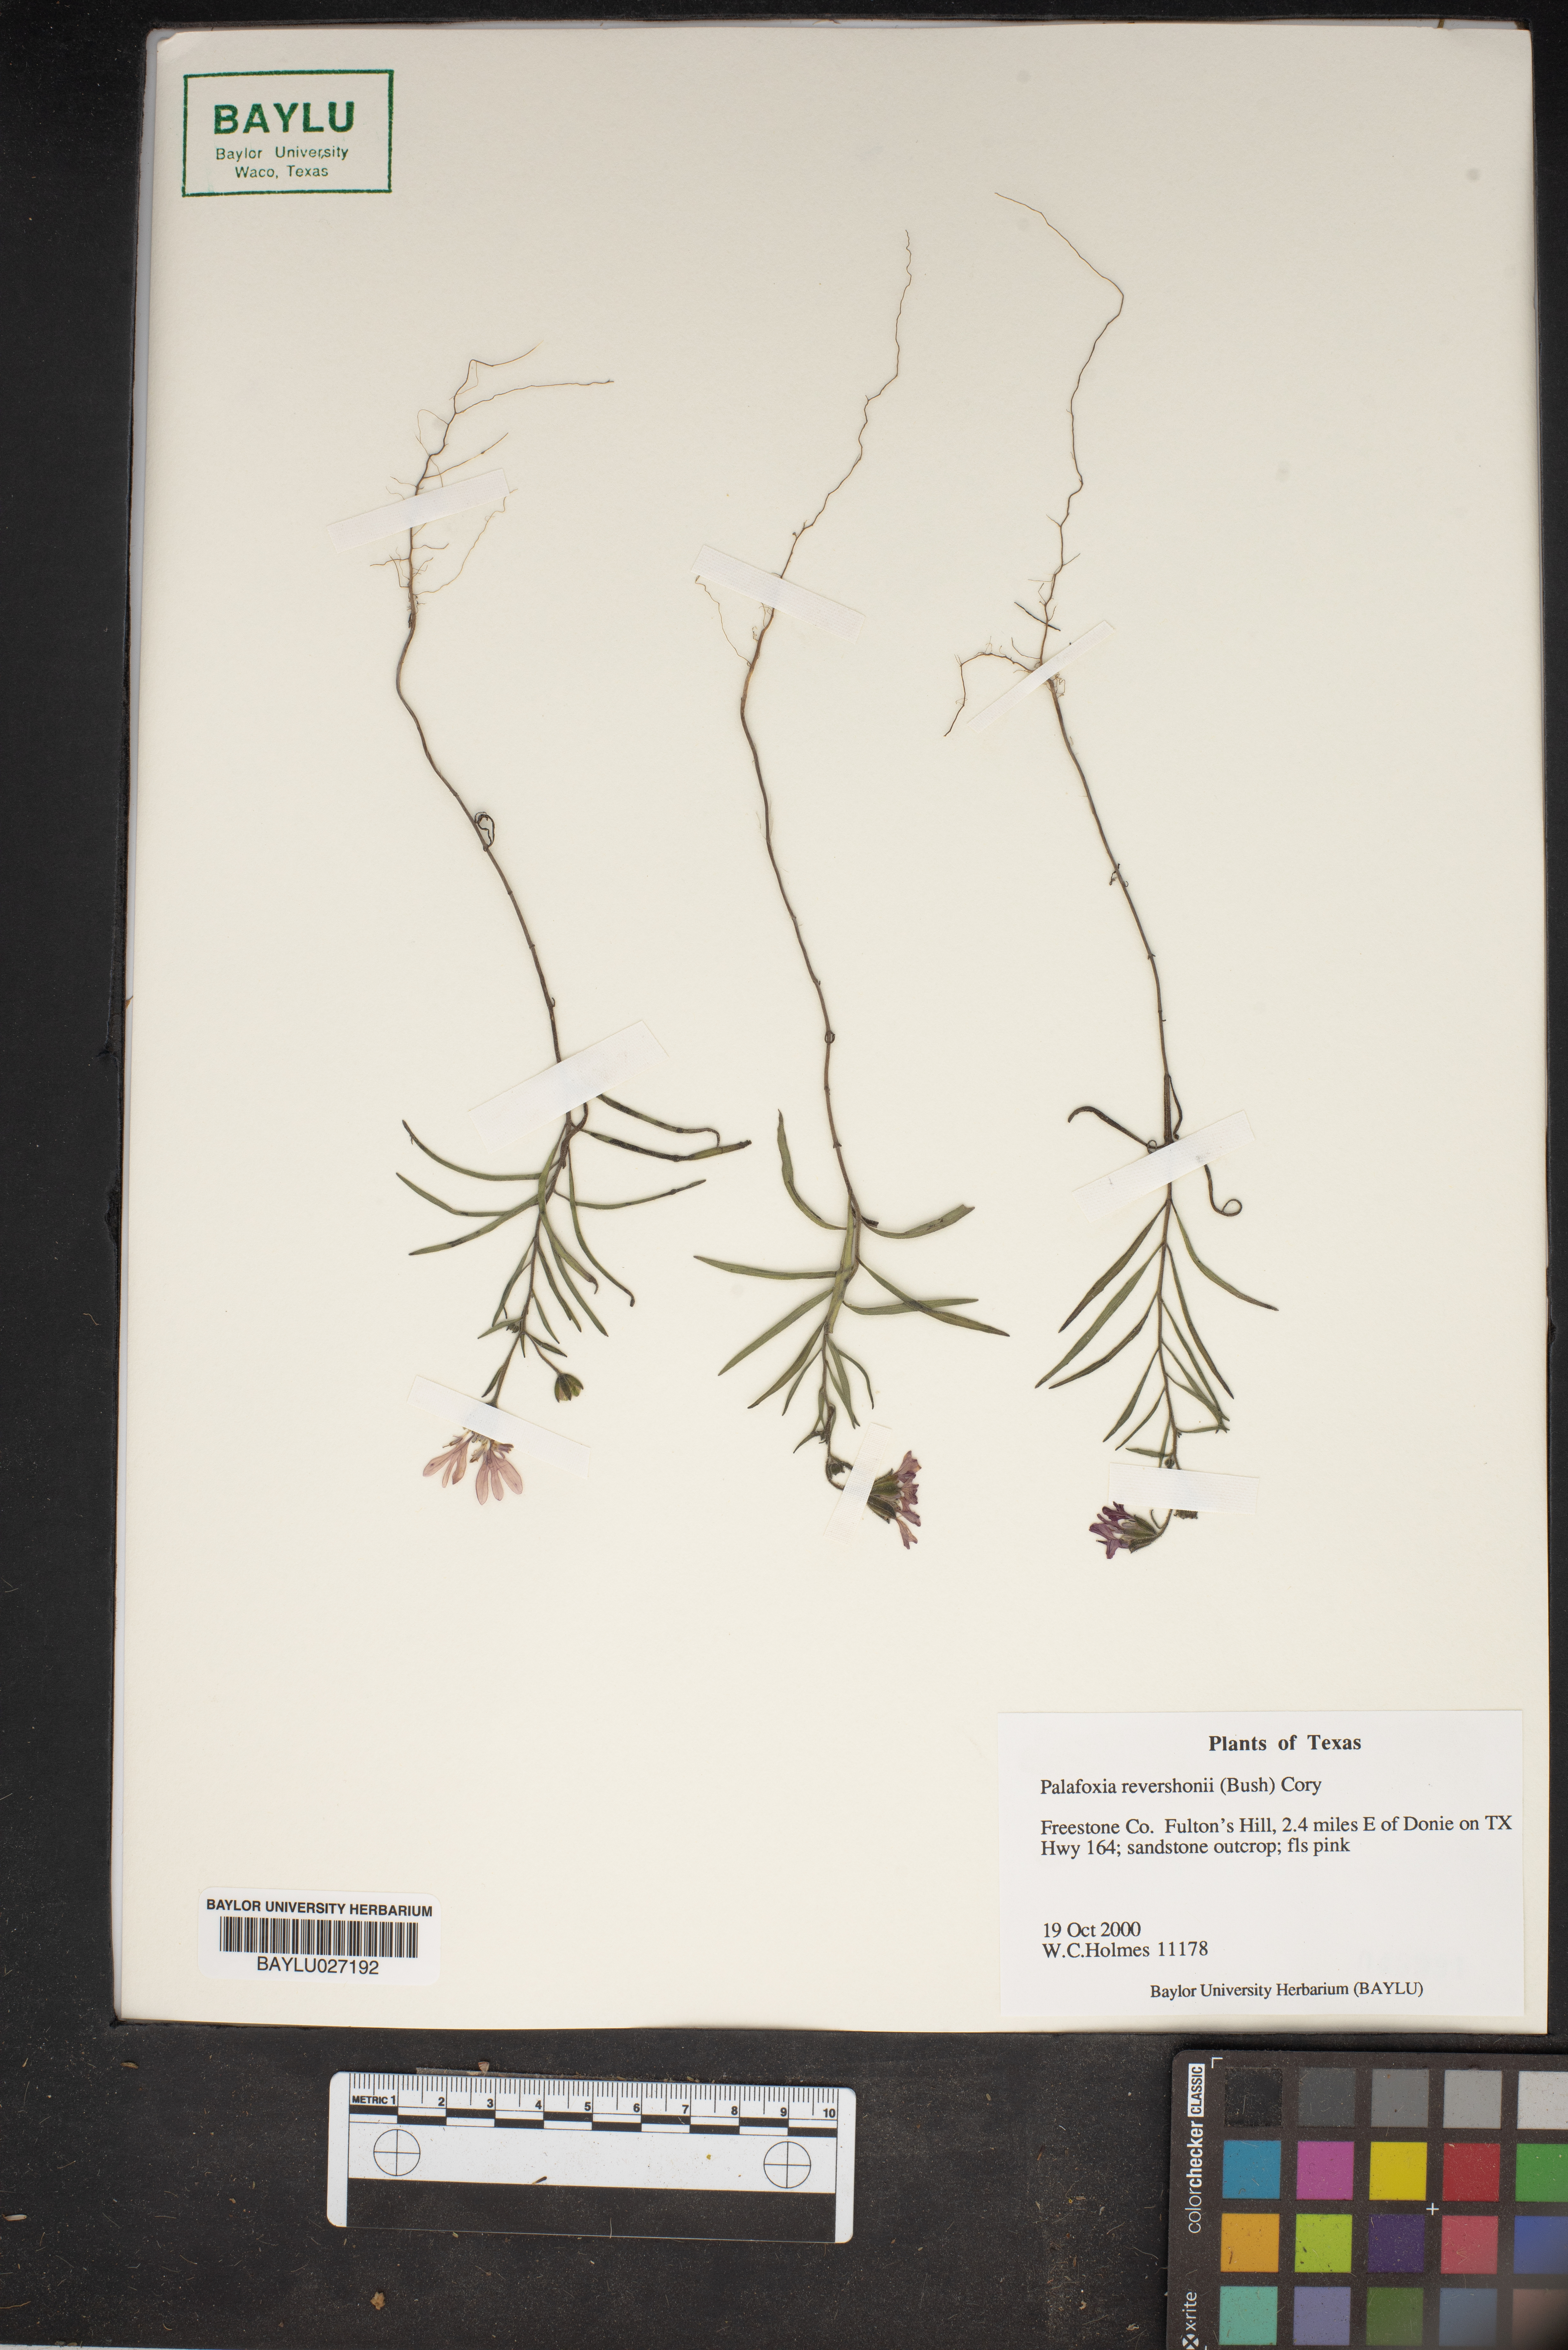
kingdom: Plantae
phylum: Tracheophyta
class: Magnoliopsida
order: Asterales
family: Asteraceae
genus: Palafoxia
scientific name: Palafoxia reverchonii
